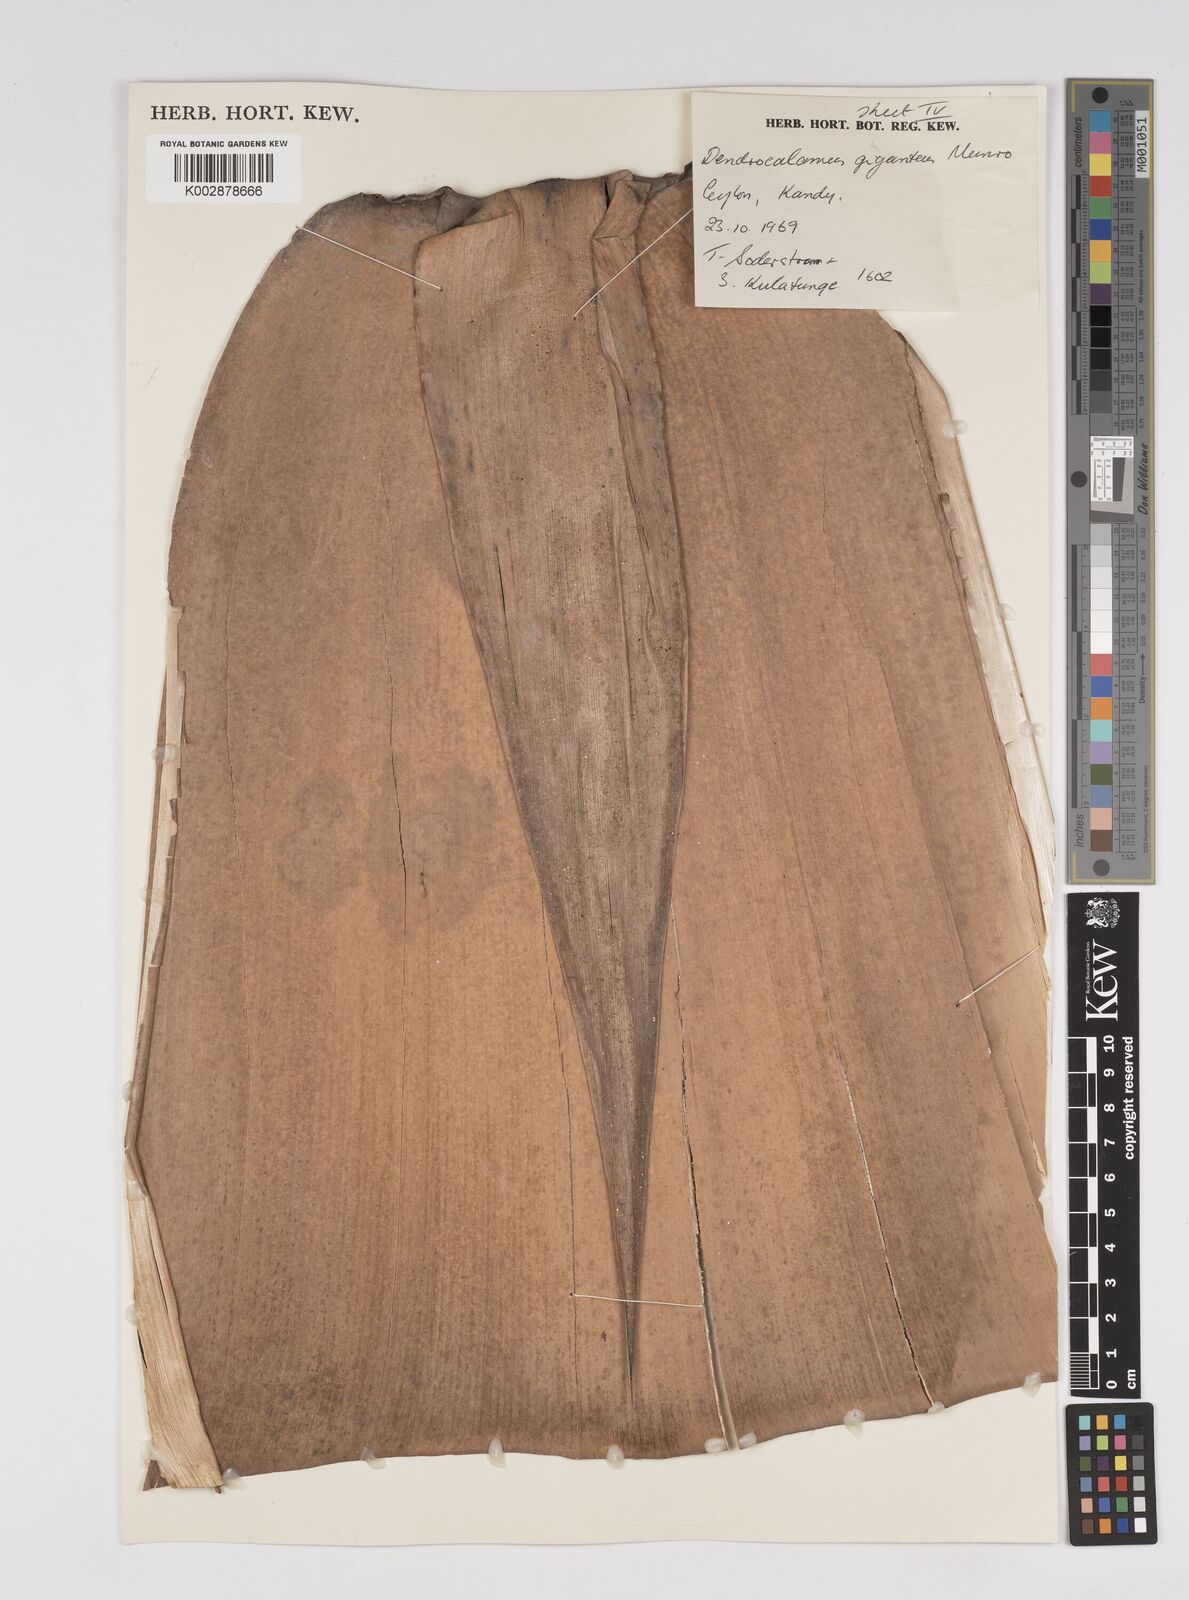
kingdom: Plantae
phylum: Tracheophyta
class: Liliopsida
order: Poales
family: Poaceae
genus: Dendrocalamus
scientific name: Dendrocalamus giganteus
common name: Giant bamboo
